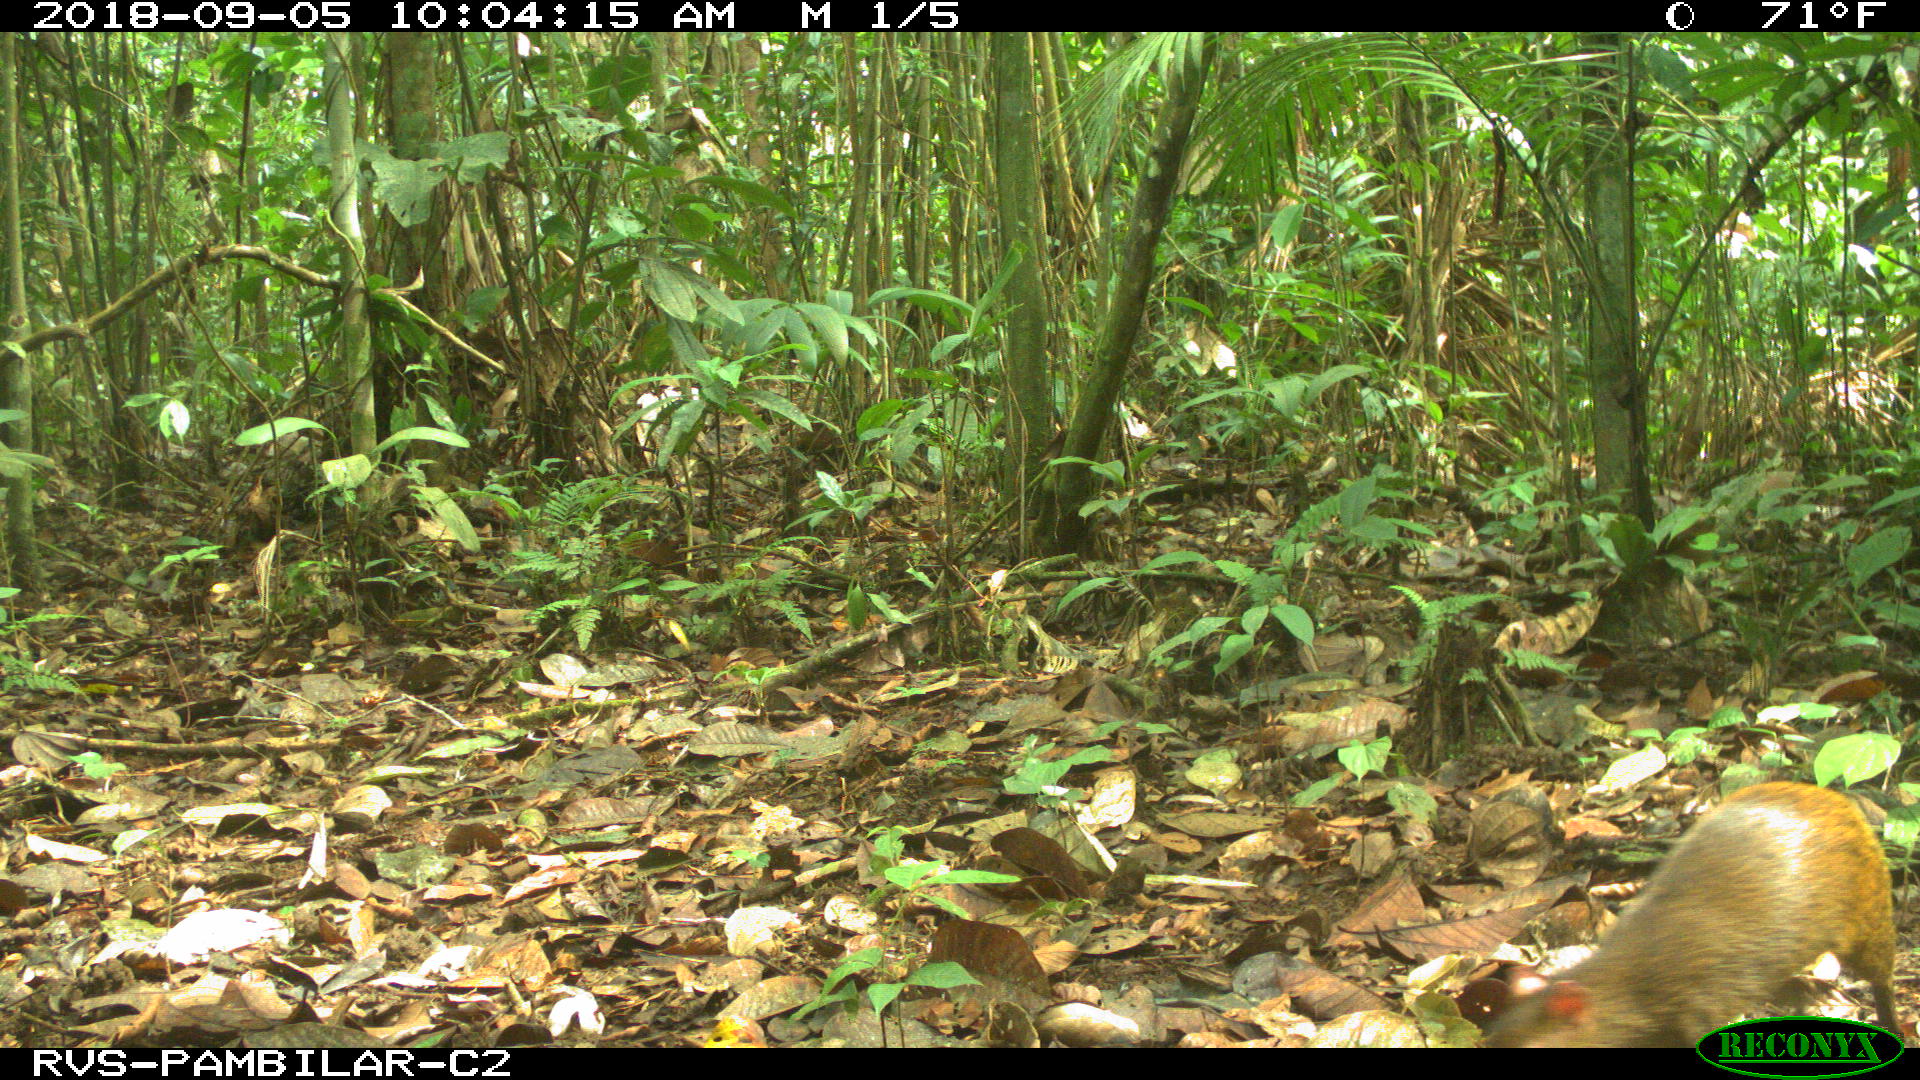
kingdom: Animalia
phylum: Chordata
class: Mammalia
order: Rodentia
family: Dasyproctidae
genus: Dasyprocta
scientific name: Dasyprocta punctata
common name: Central american agouti
